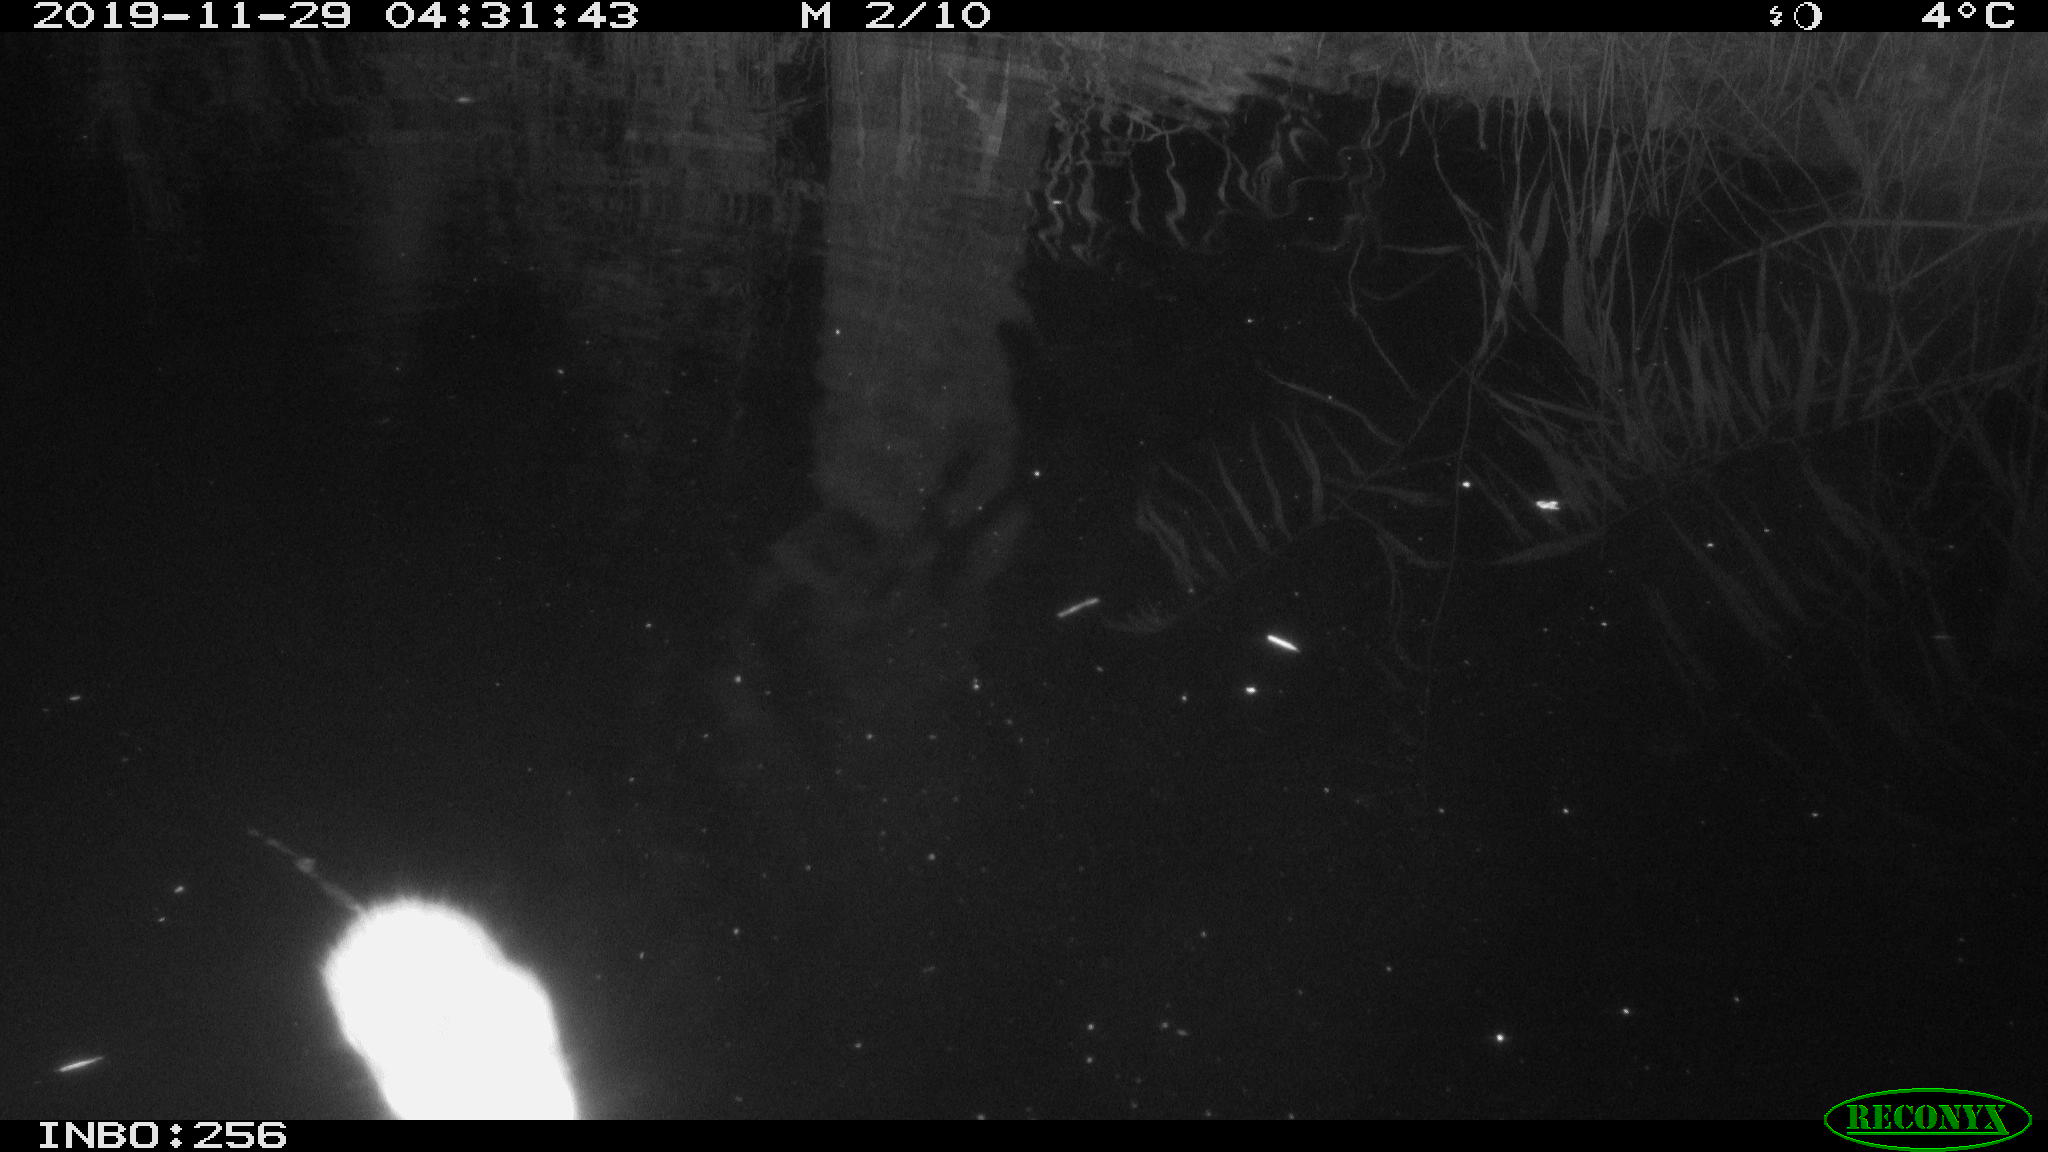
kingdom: Animalia
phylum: Chordata
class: Mammalia
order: Rodentia
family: Cricetidae
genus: Ondatra
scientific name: Ondatra zibethicus
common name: Muskrat
